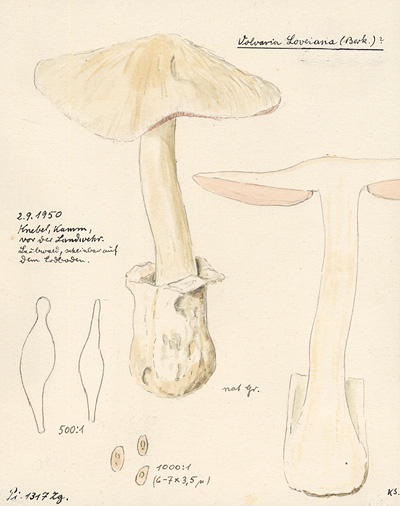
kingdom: Fungi
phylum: Basidiomycota
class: Agaricomycetes
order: Agaricales
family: Pluteaceae
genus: Volvariella
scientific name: Volvariella surrecta
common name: Piggyback rosegill
